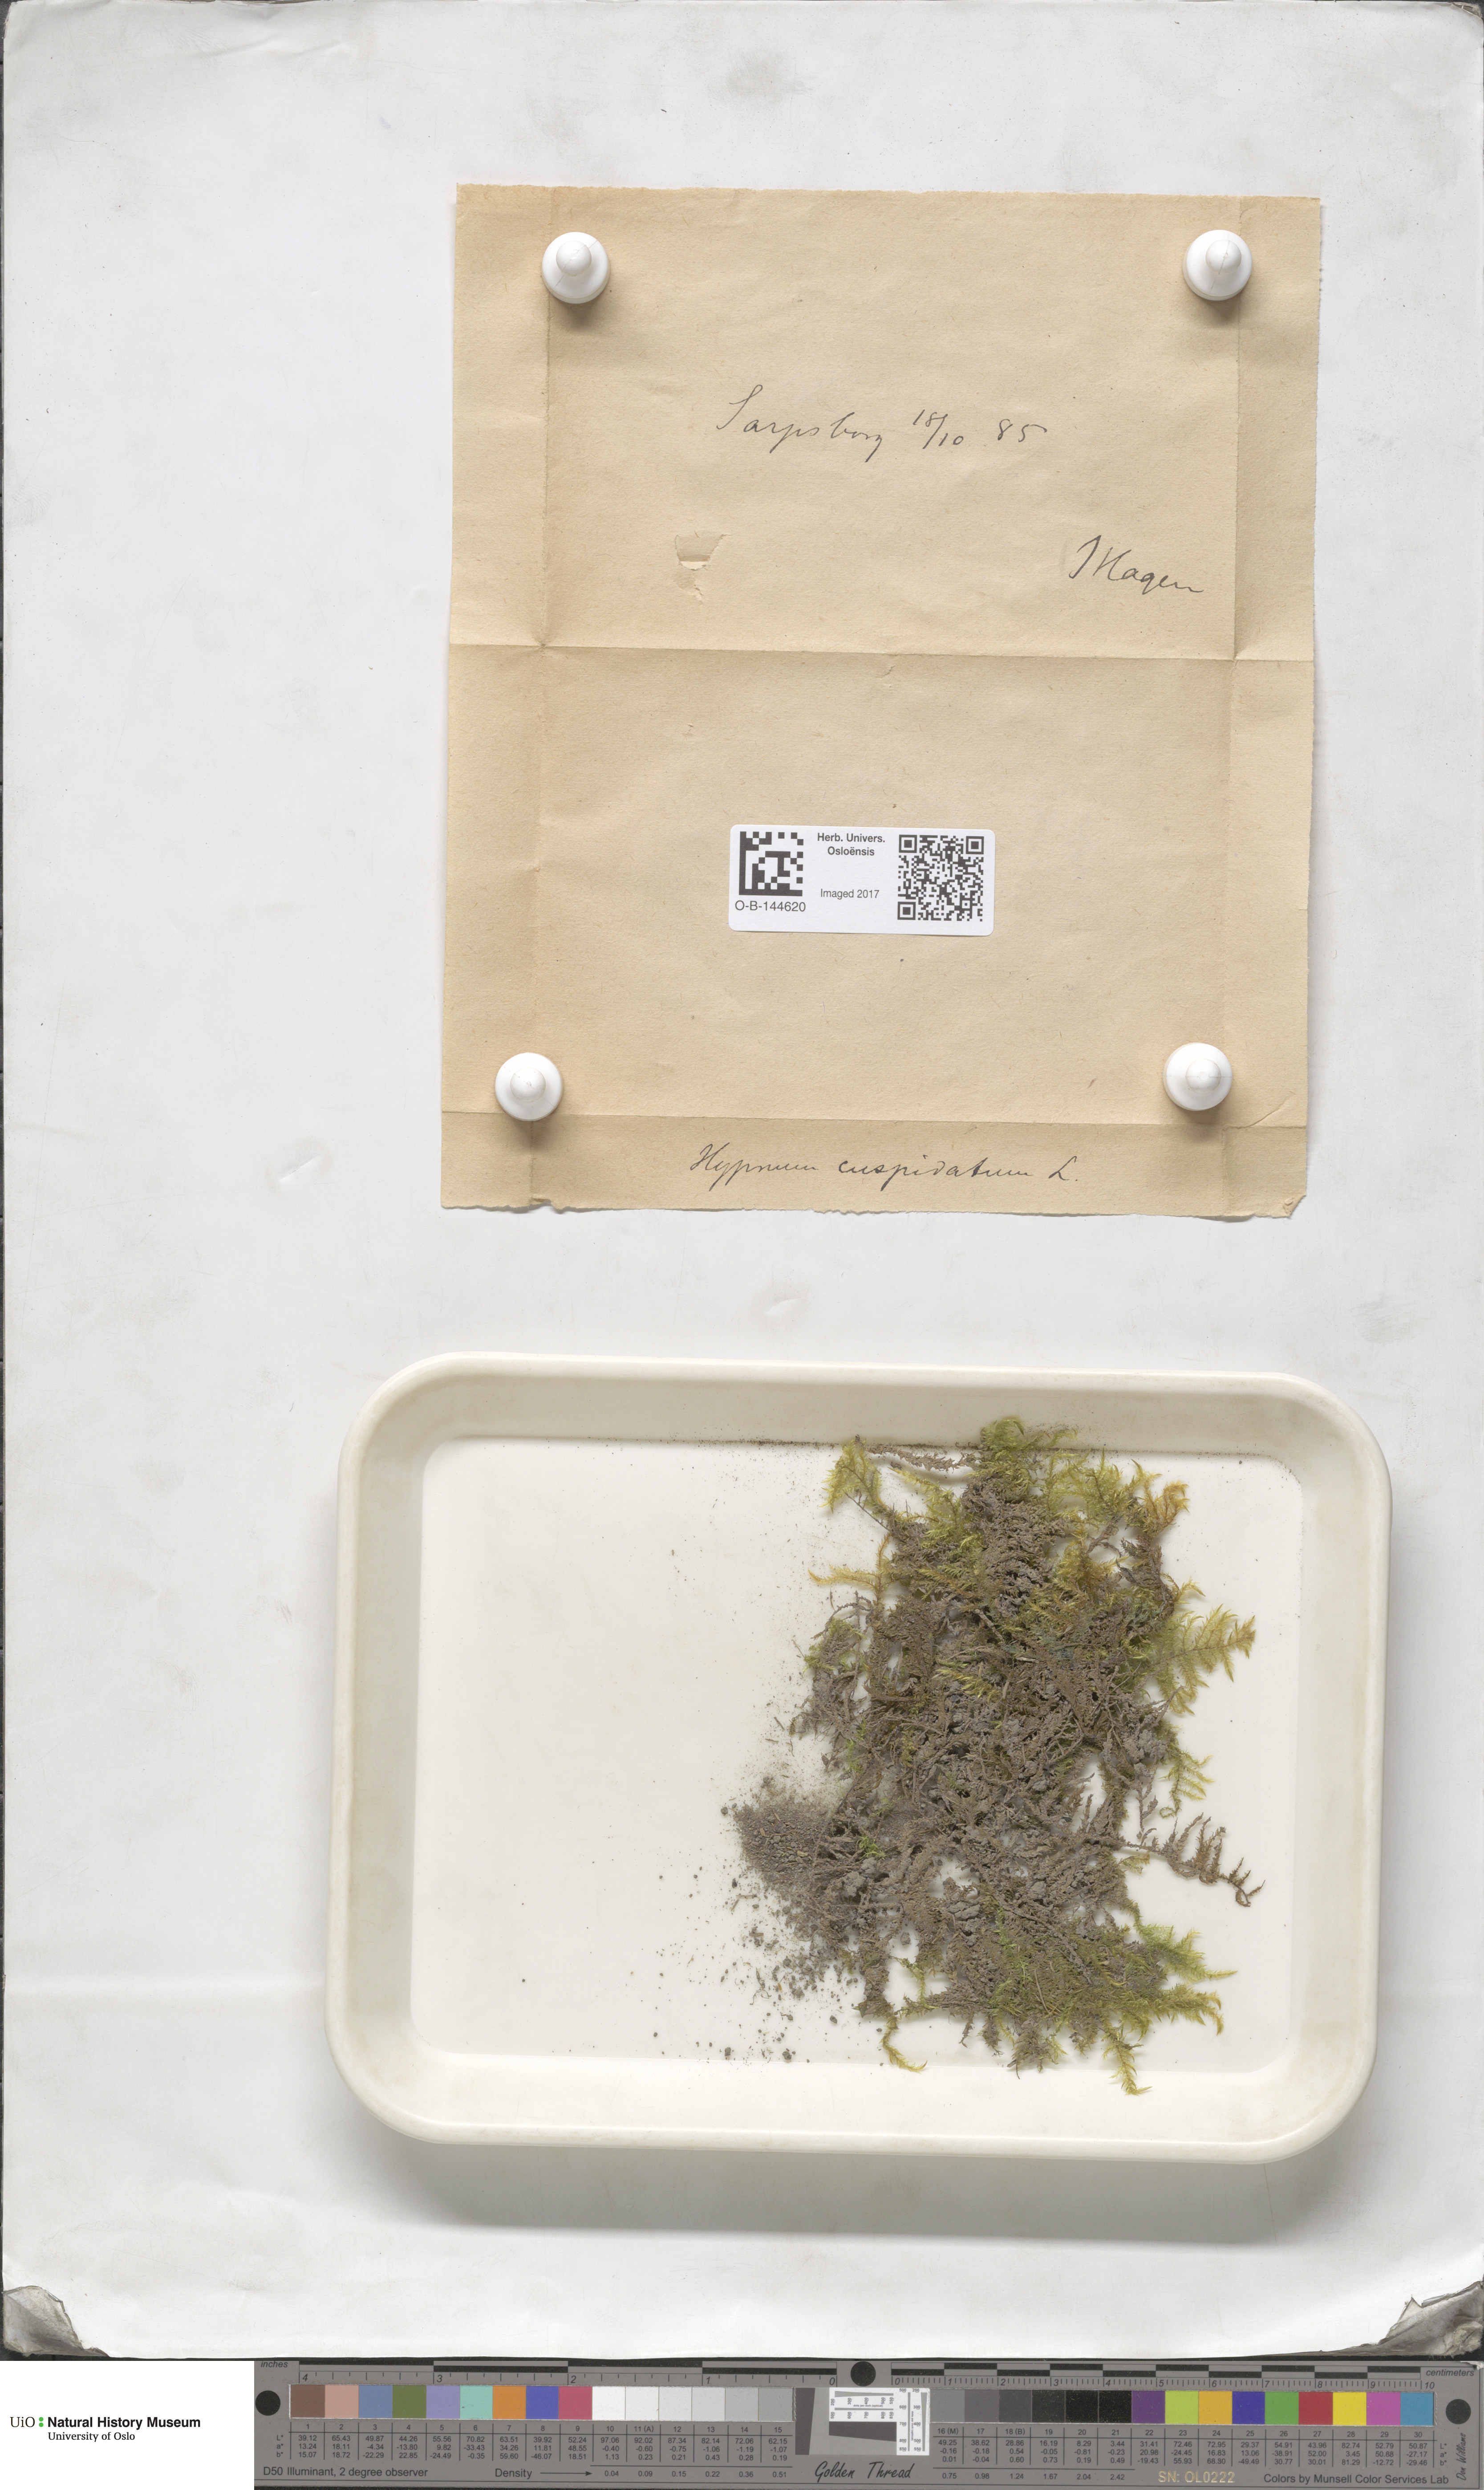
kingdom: Plantae
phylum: Bryophyta
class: Bryopsida
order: Hypnales
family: Pylaisiaceae
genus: Calliergonella
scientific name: Calliergonella cuspidata
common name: Common large wetland moss
